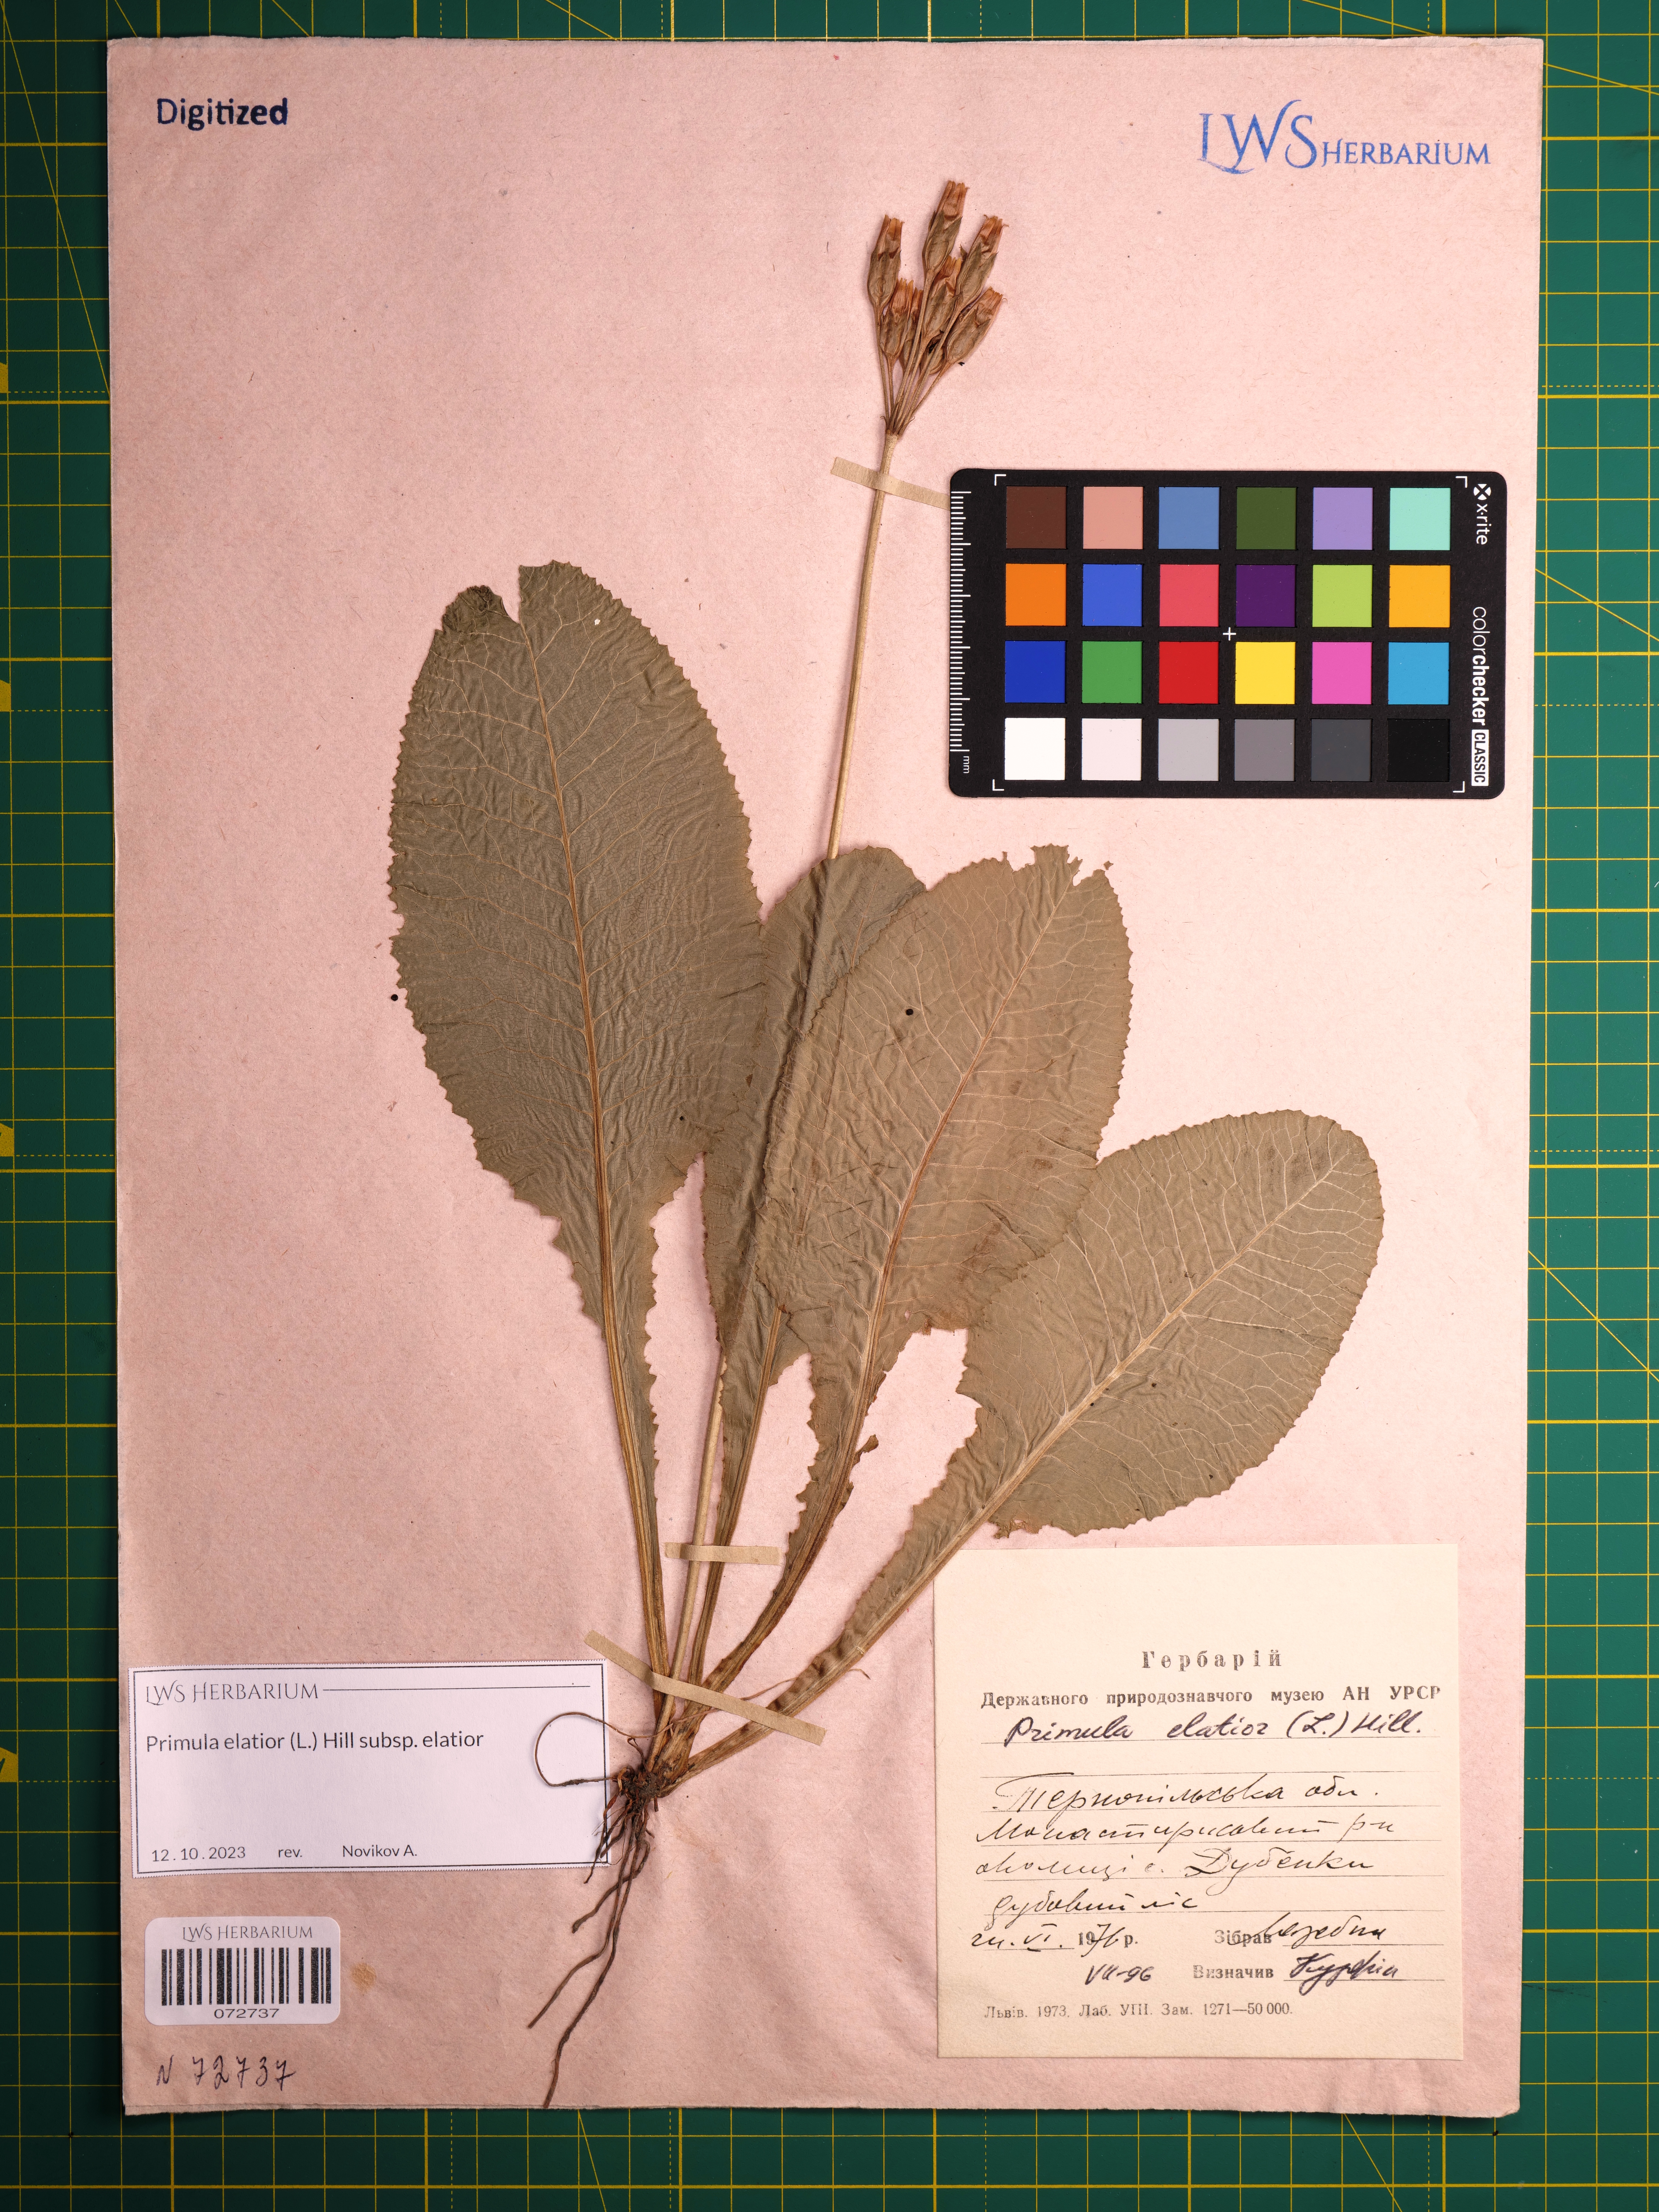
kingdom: Plantae
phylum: Tracheophyta
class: Magnoliopsida
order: Ericales
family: Primulaceae
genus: Primula
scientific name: Primula elatior
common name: Oxlip
